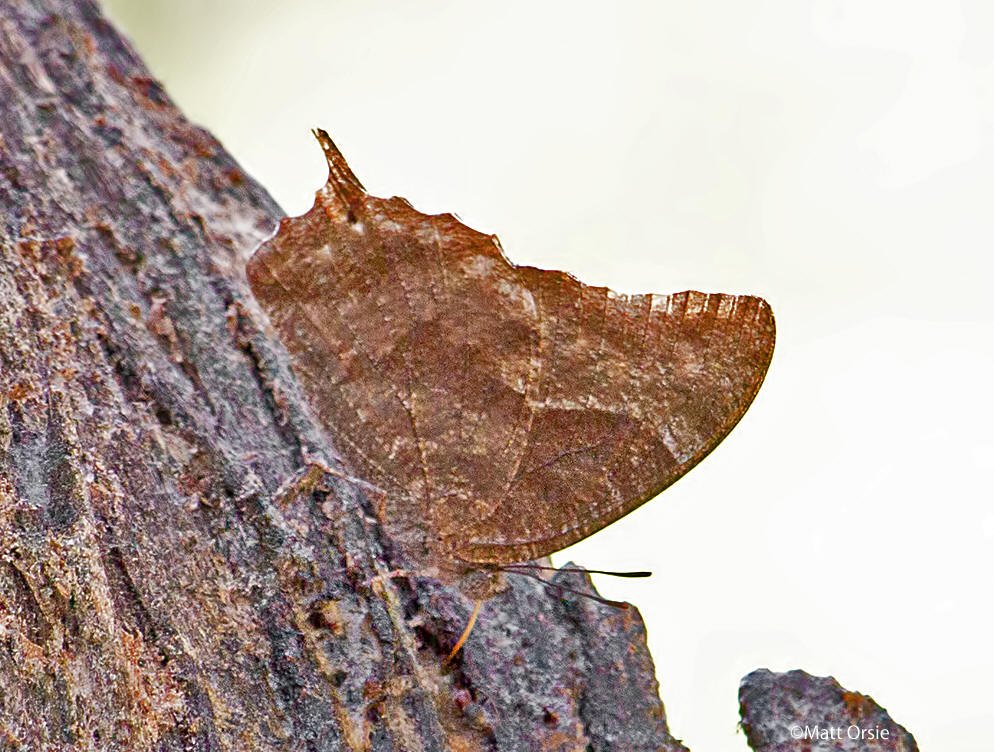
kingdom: Animalia
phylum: Arthropoda
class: Insecta
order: Lepidoptera
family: Nymphalidae
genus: Anaea
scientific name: Anaea pithyusa
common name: Pale-spotted Leafwing
